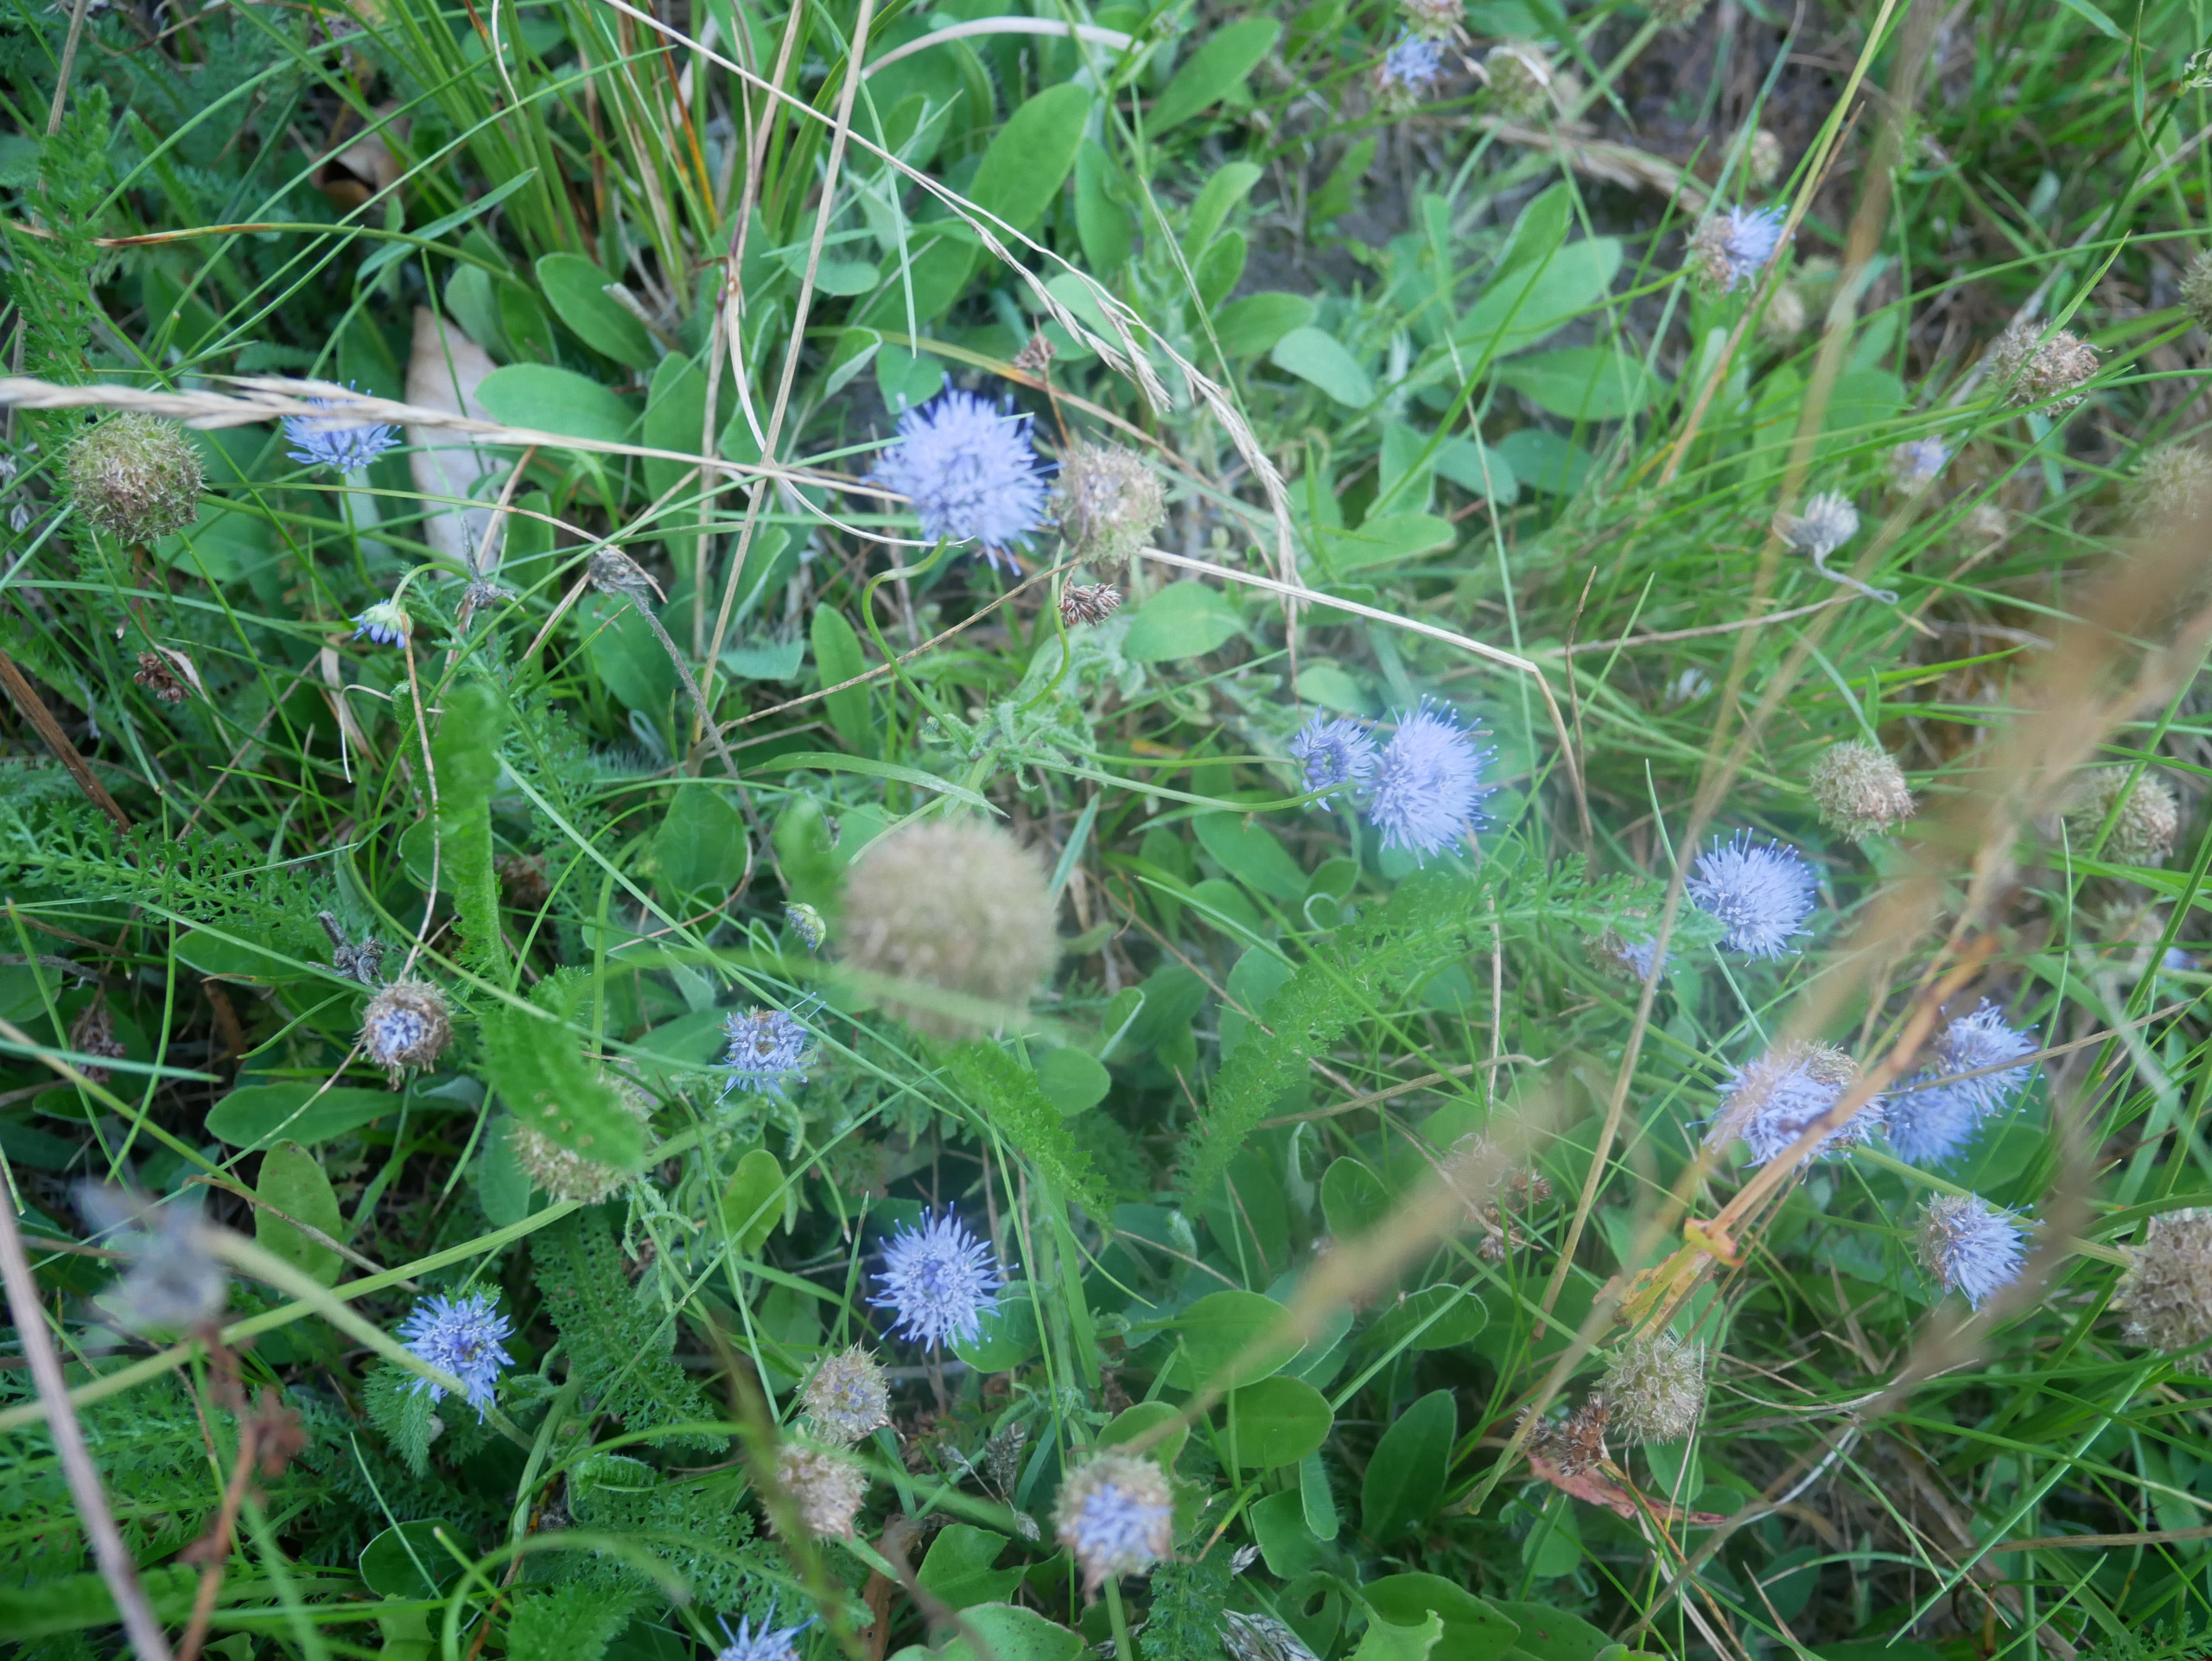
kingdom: Plantae
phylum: Tracheophyta
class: Magnoliopsida
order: Asterales
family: Campanulaceae
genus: Jasione
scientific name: Jasione montana
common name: Blåmunke
